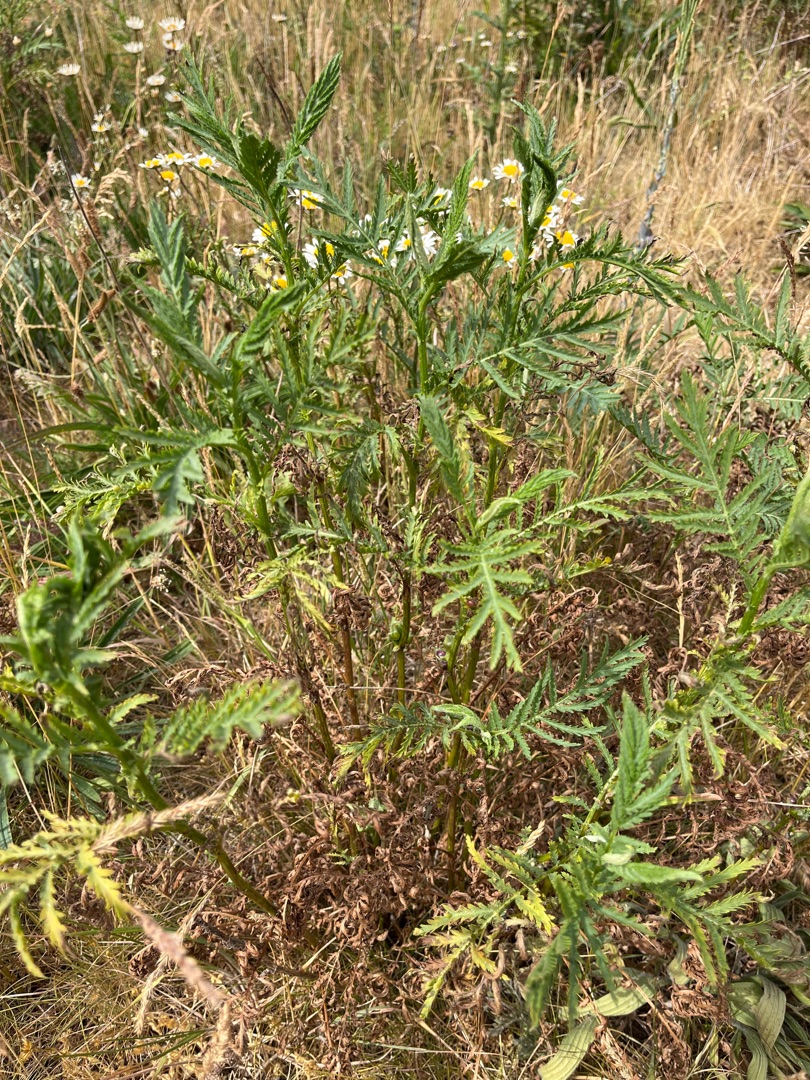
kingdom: Plantae
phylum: Tracheophyta
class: Magnoliopsida
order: Asterales
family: Asteraceae
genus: Tanacetum
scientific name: Tanacetum vulgare
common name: Rejnfan
